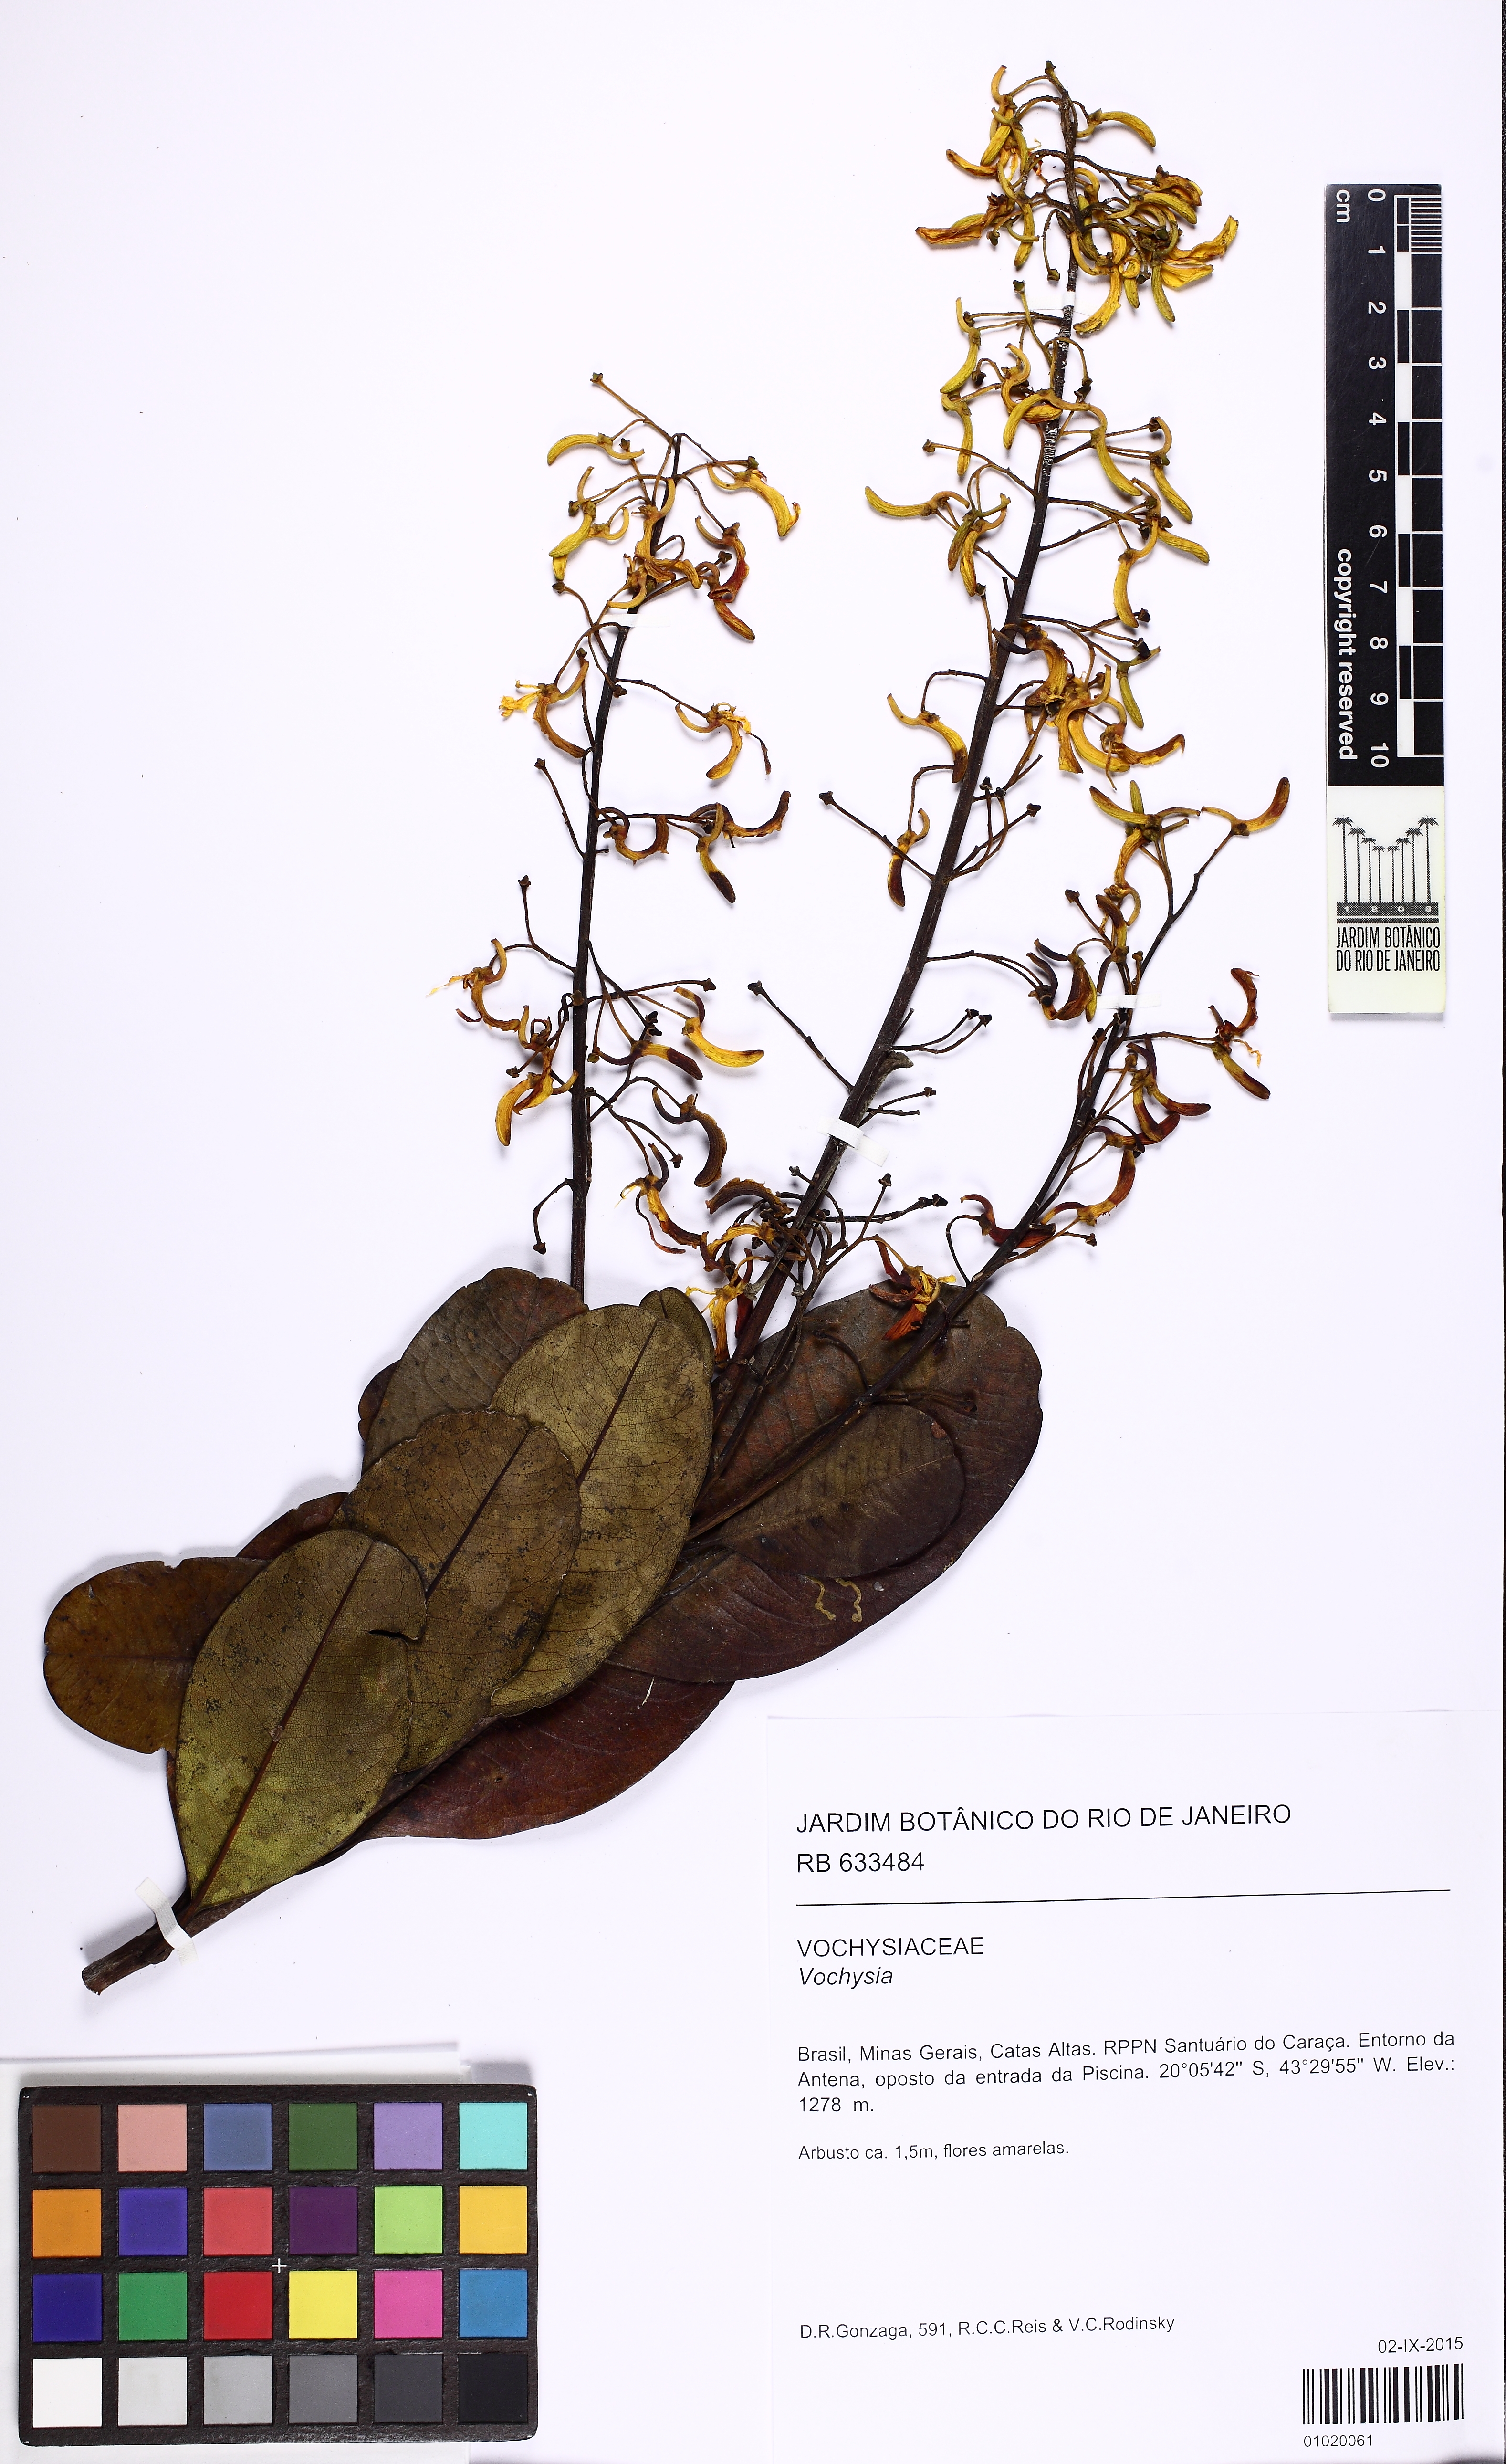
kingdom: Plantae
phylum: Tracheophyta
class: Magnoliopsida
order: Myrtales
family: Vochysiaceae
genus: Vochysia
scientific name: Vochysia
